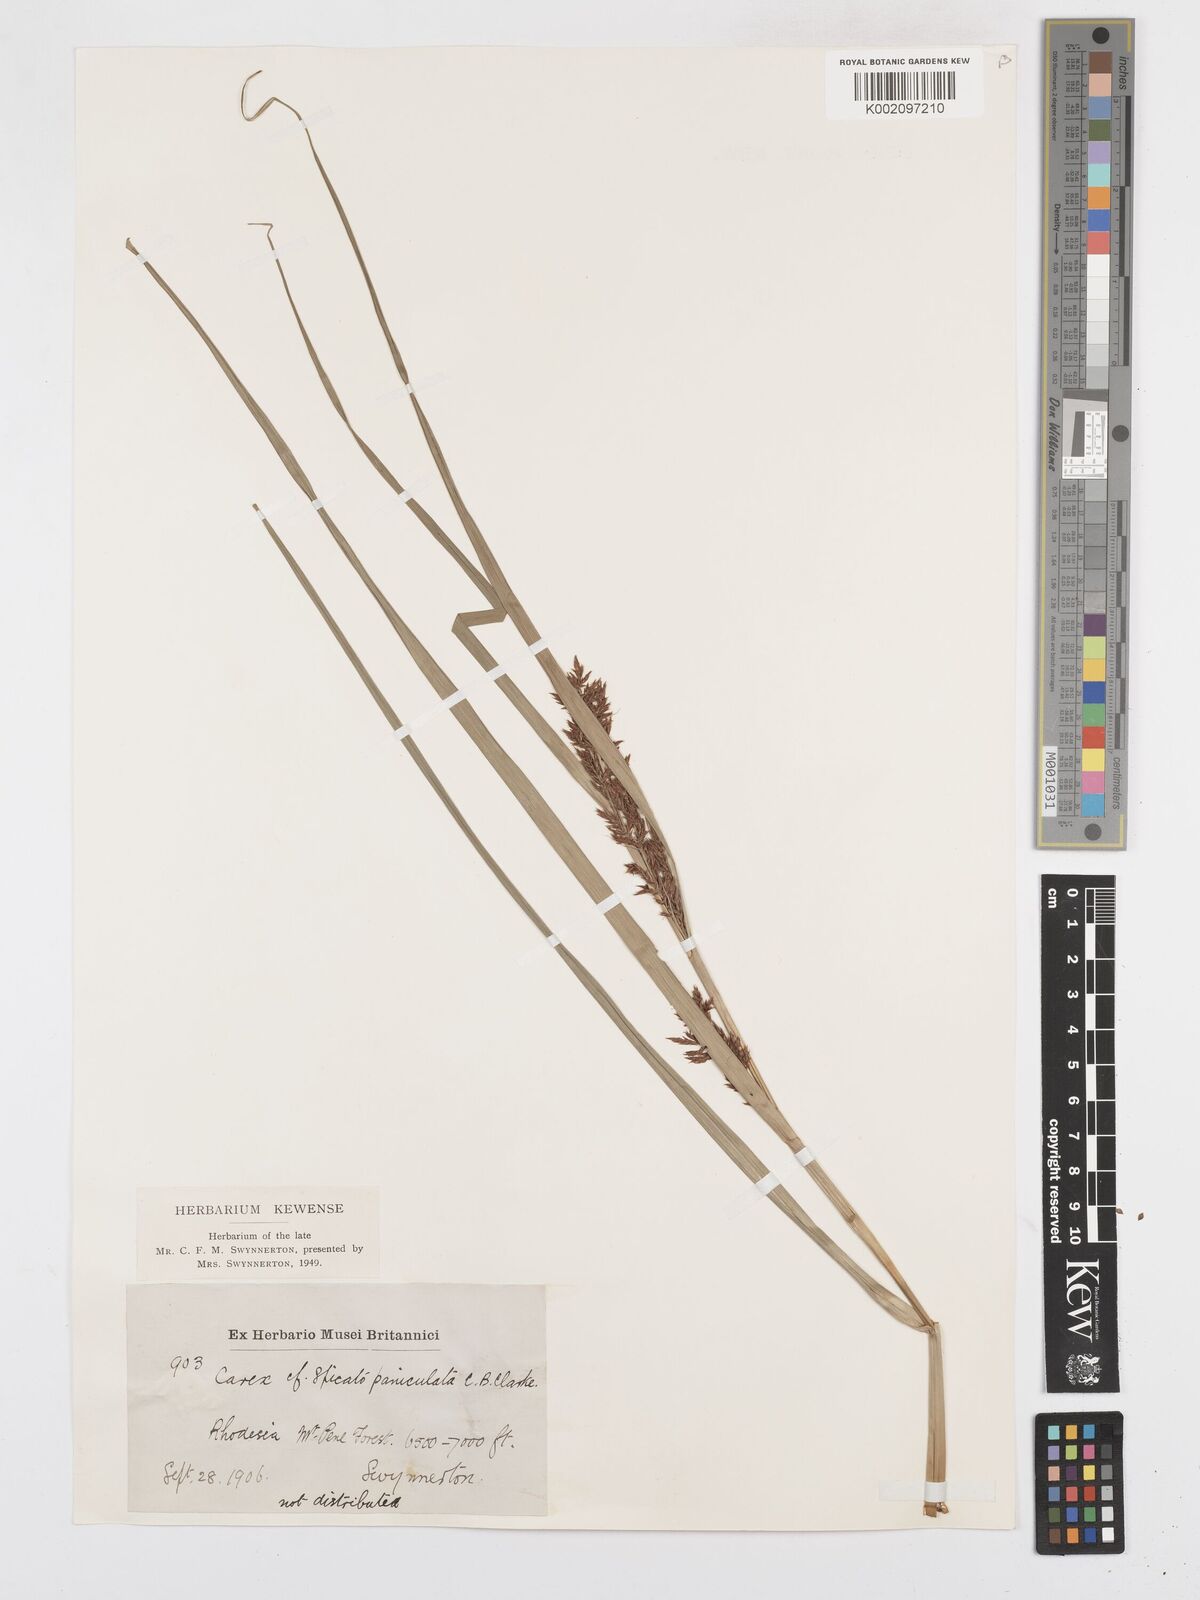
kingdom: Plantae
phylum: Tracheophyta
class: Liliopsida
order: Poales
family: Cyperaceae
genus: Carex
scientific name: Carex
